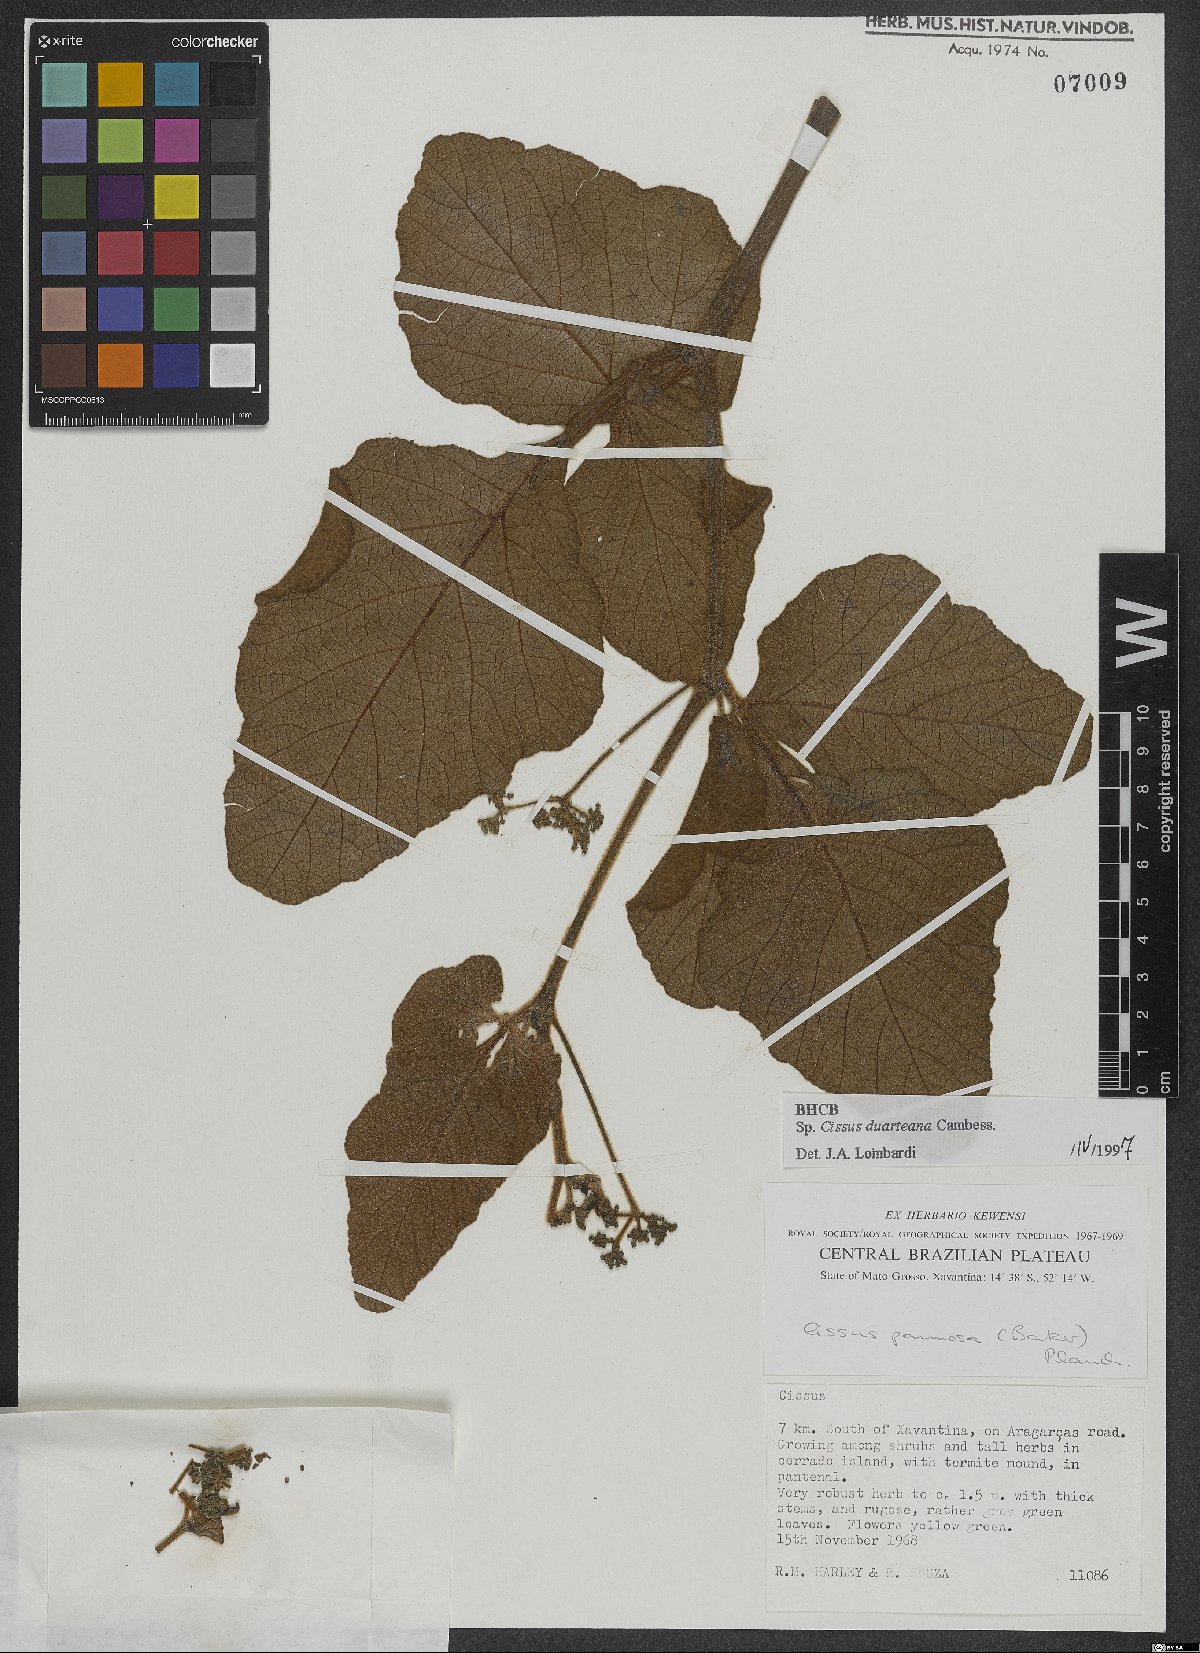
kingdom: Plantae
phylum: Tracheophyta
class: Magnoliopsida
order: Vitales
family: Vitaceae
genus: Cissus
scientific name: Cissus duarteana
